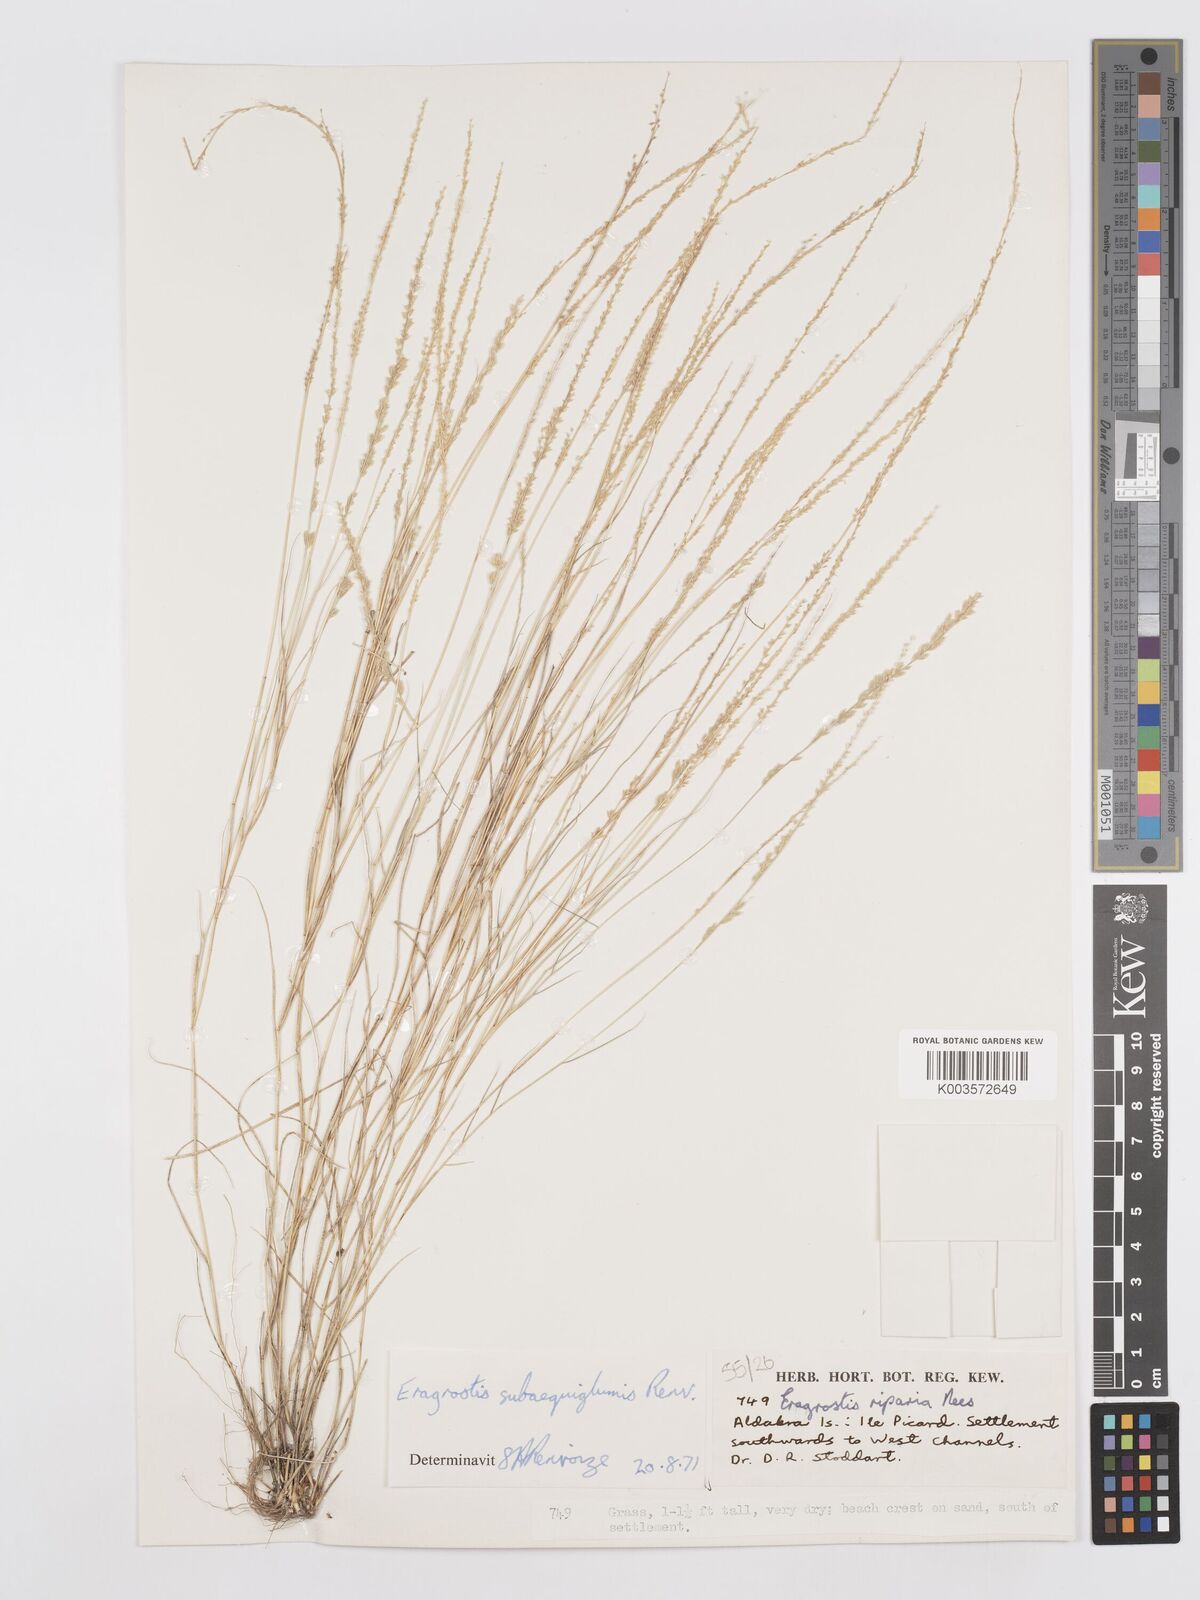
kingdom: Plantae
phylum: Tracheophyta
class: Liliopsida
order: Poales
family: Poaceae
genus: Eragrostis
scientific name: Eragrostis subaequiglumis
